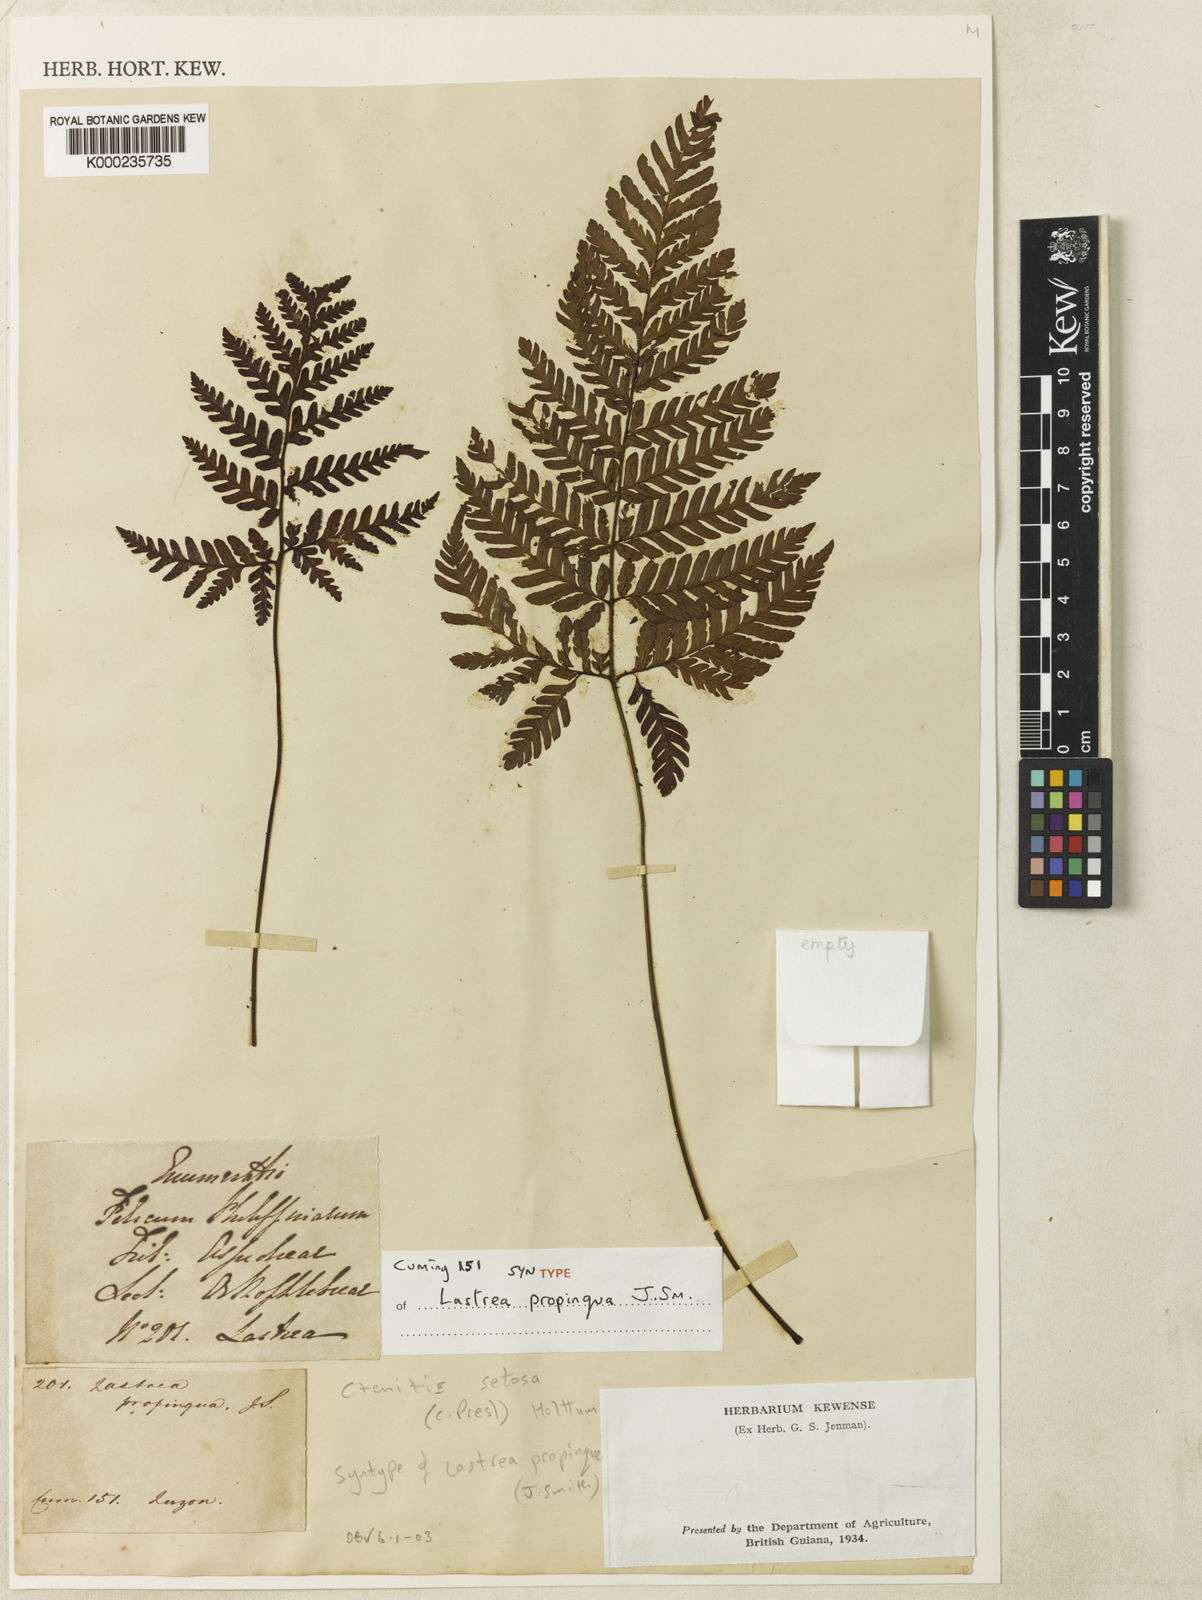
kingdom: Plantae
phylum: Tracheophyta
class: Polypodiopsida
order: Polypodiales
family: Dryopteridaceae
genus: Ctenitis
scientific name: Ctenitis setosa
